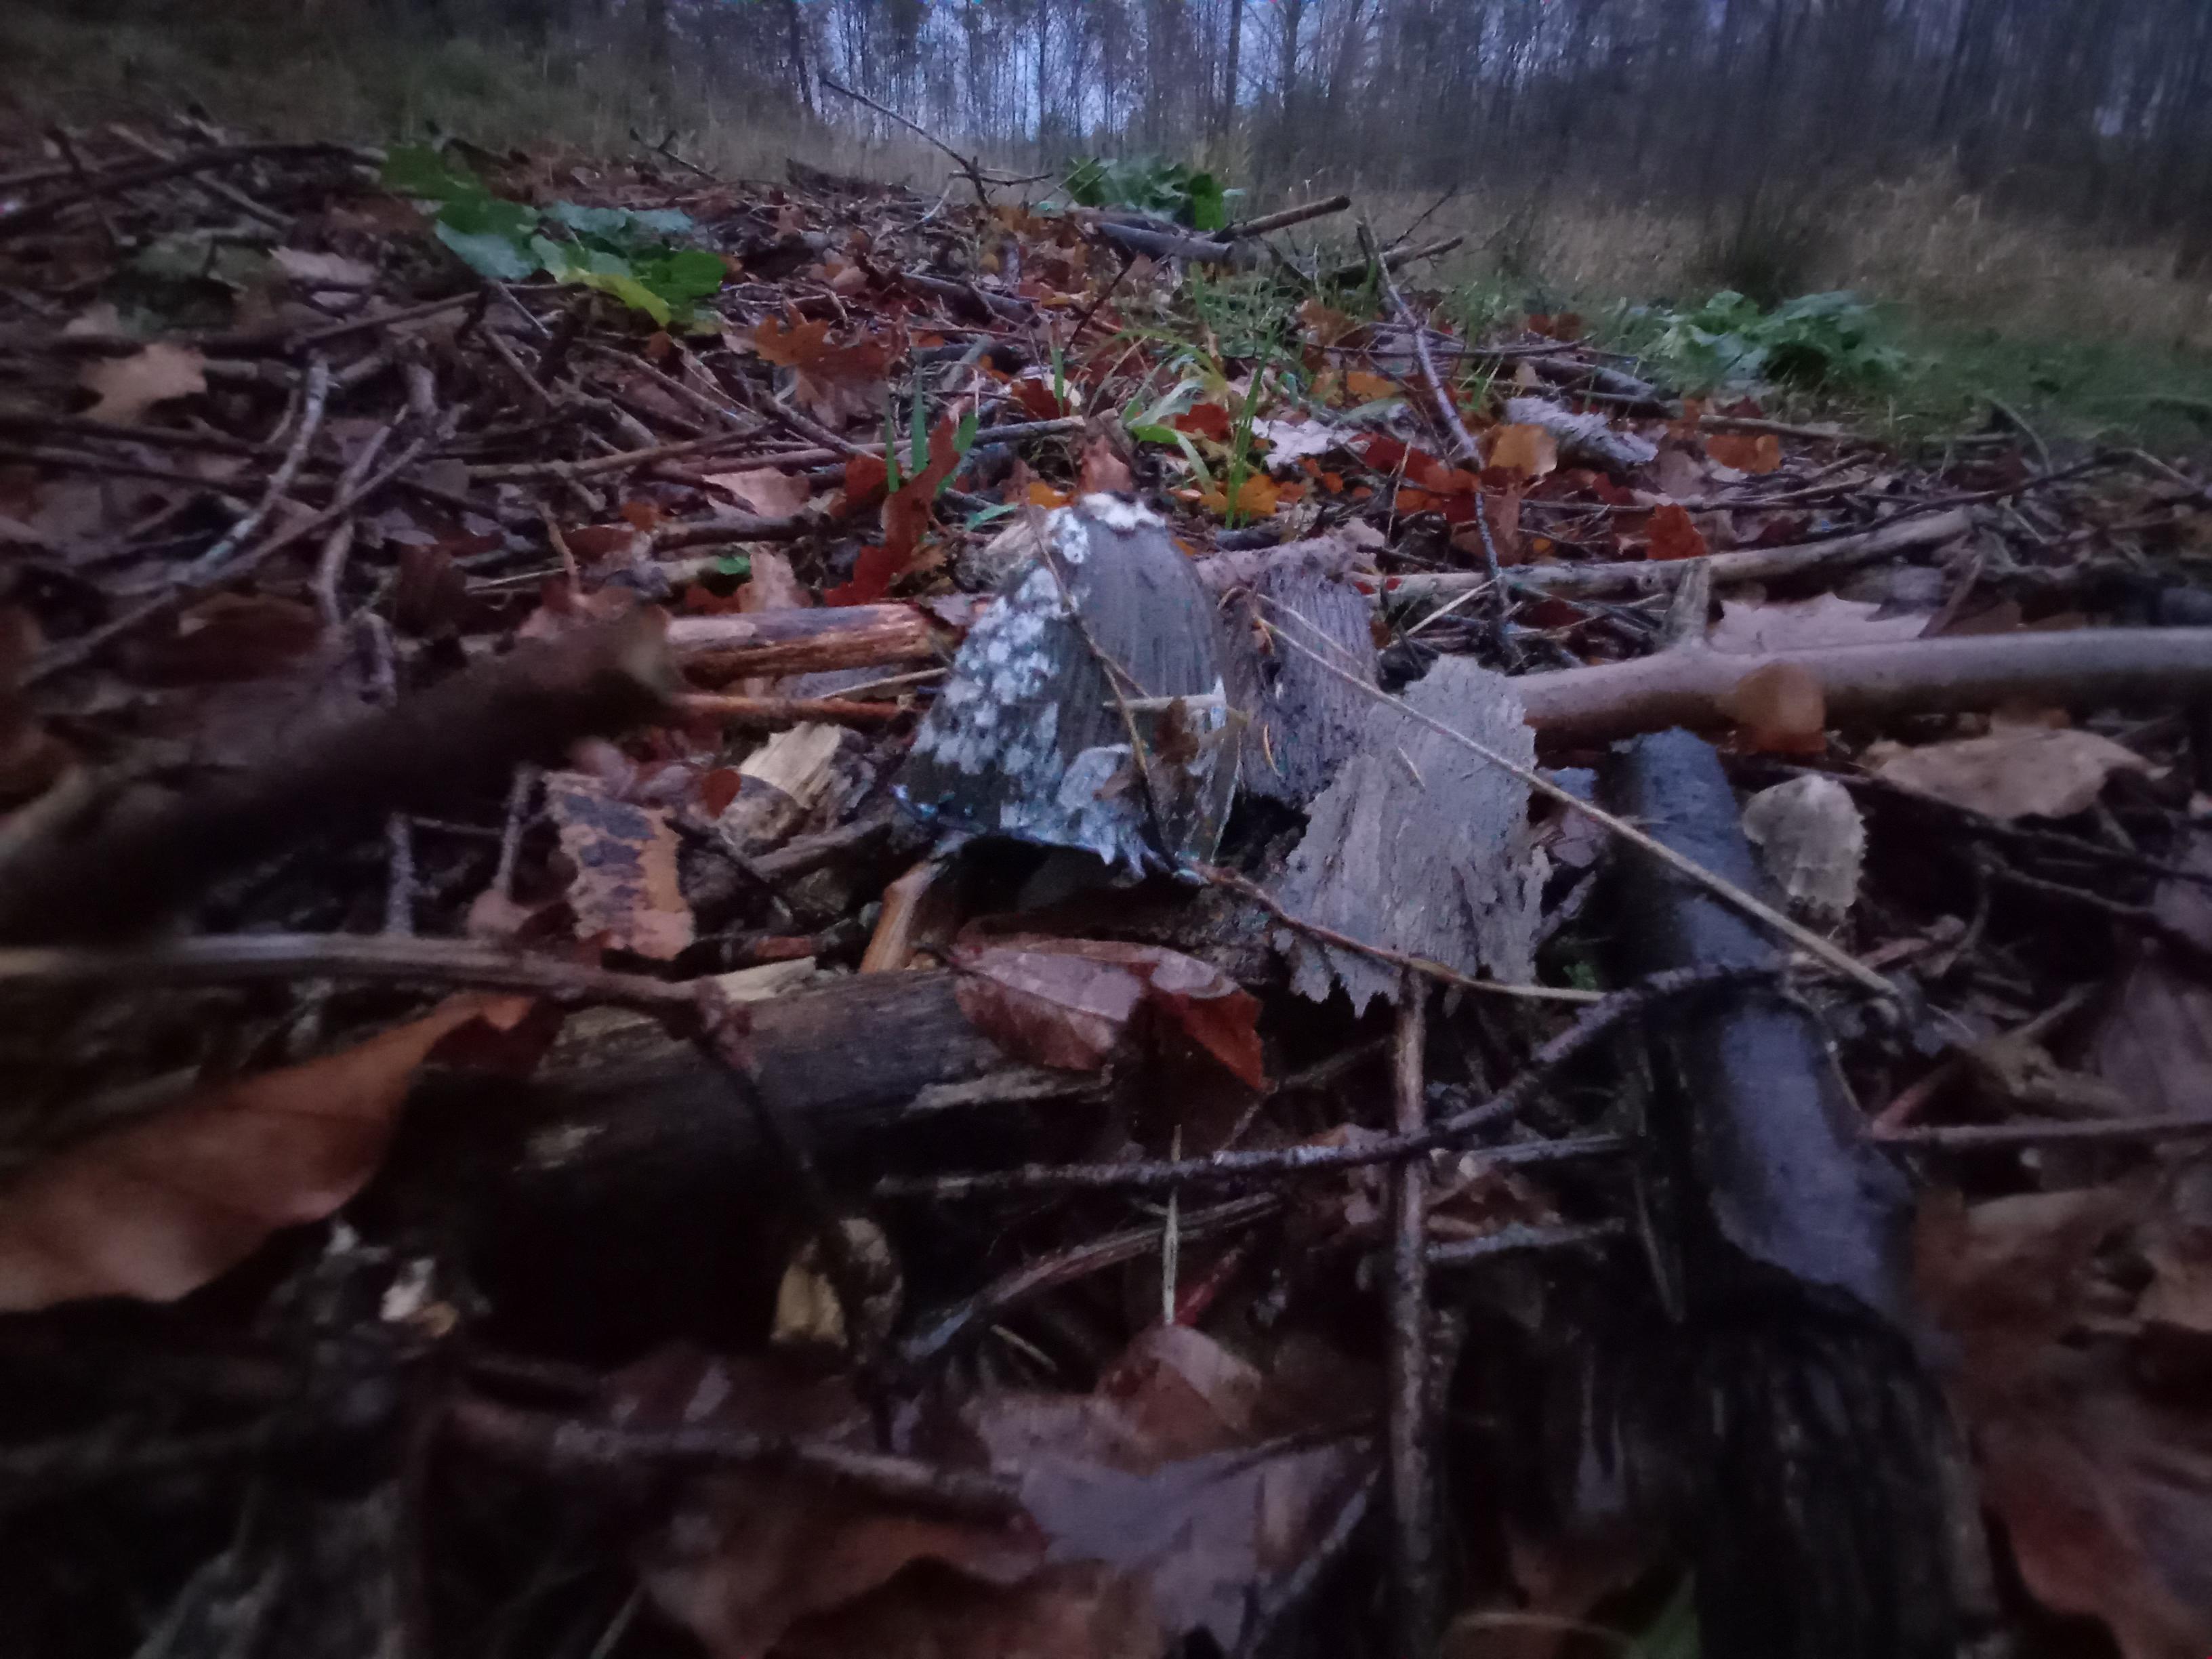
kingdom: Fungi
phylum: Basidiomycota
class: Agaricomycetes
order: Agaricales
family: Psathyrellaceae
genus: Coprinopsis
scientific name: Coprinopsis picacea
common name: skade-blækhat
